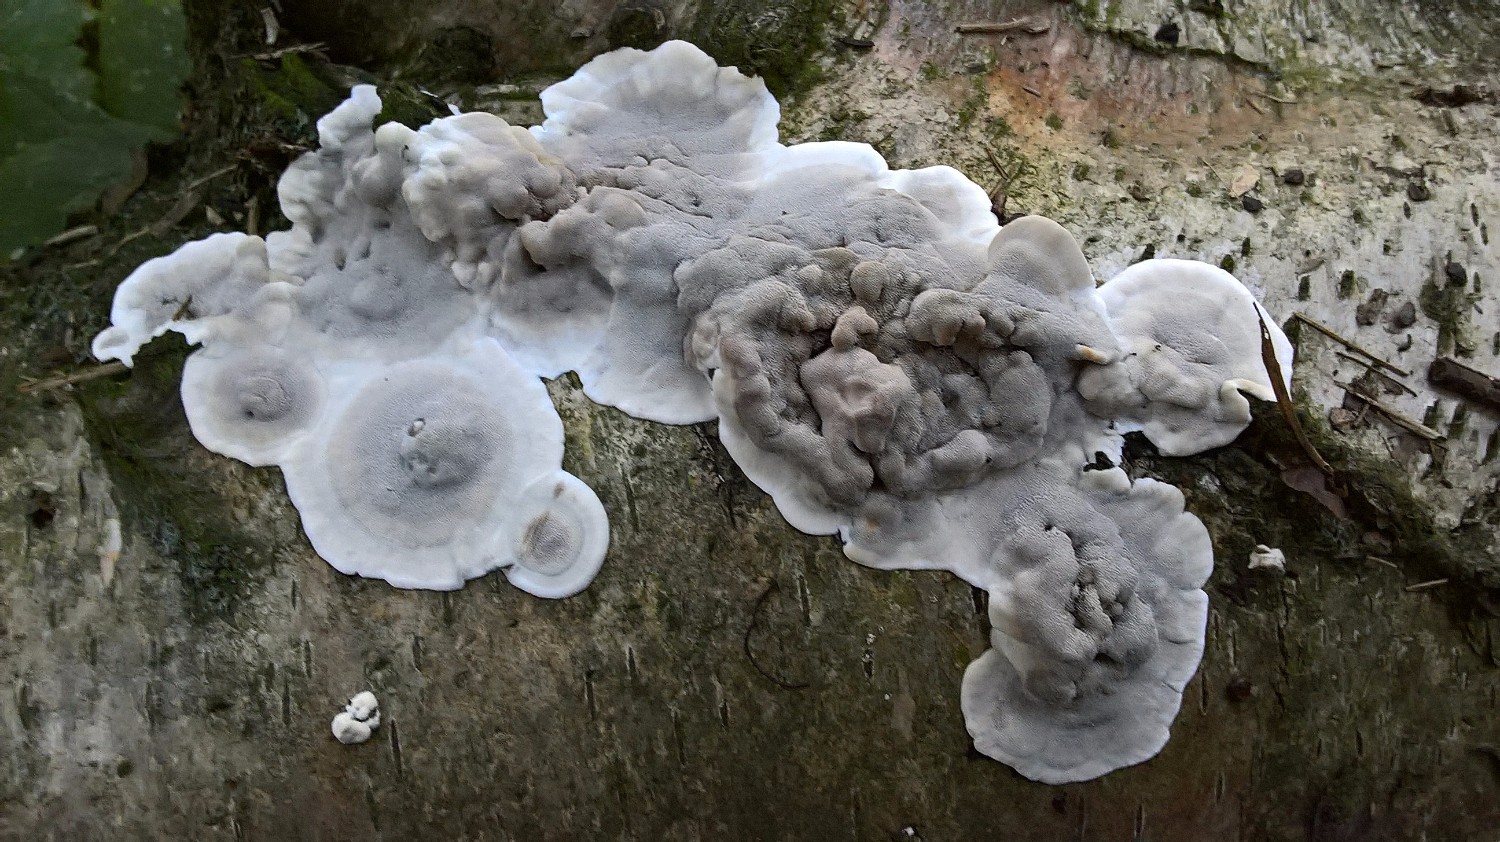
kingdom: Fungi
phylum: Basidiomycota
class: Agaricomycetes
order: Polyporales
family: Phanerochaetaceae
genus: Bjerkandera
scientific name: Bjerkandera adusta
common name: sveden sodporesvamp
